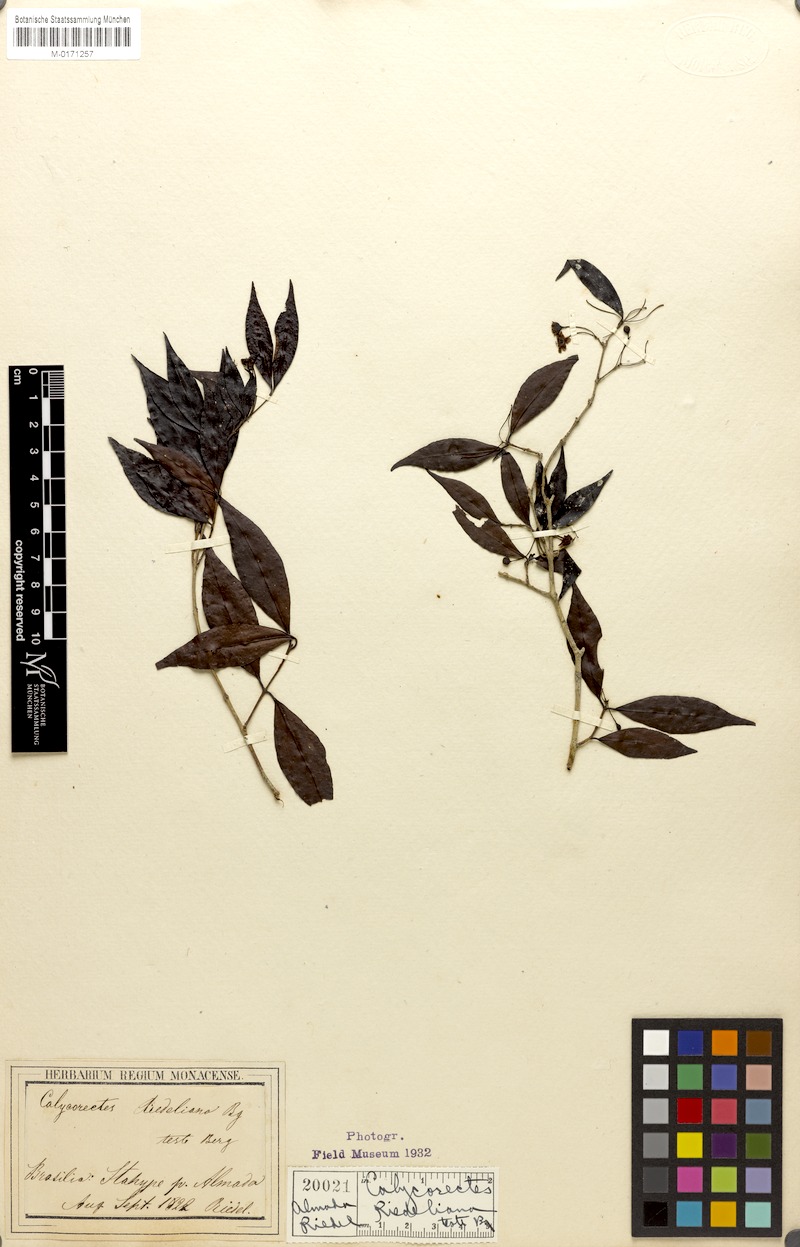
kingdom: Plantae
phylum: Tracheophyta
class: Magnoliopsida
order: Myrtales
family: Myrtaceae
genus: Eugenia
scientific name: Eugenia psidiiflora
